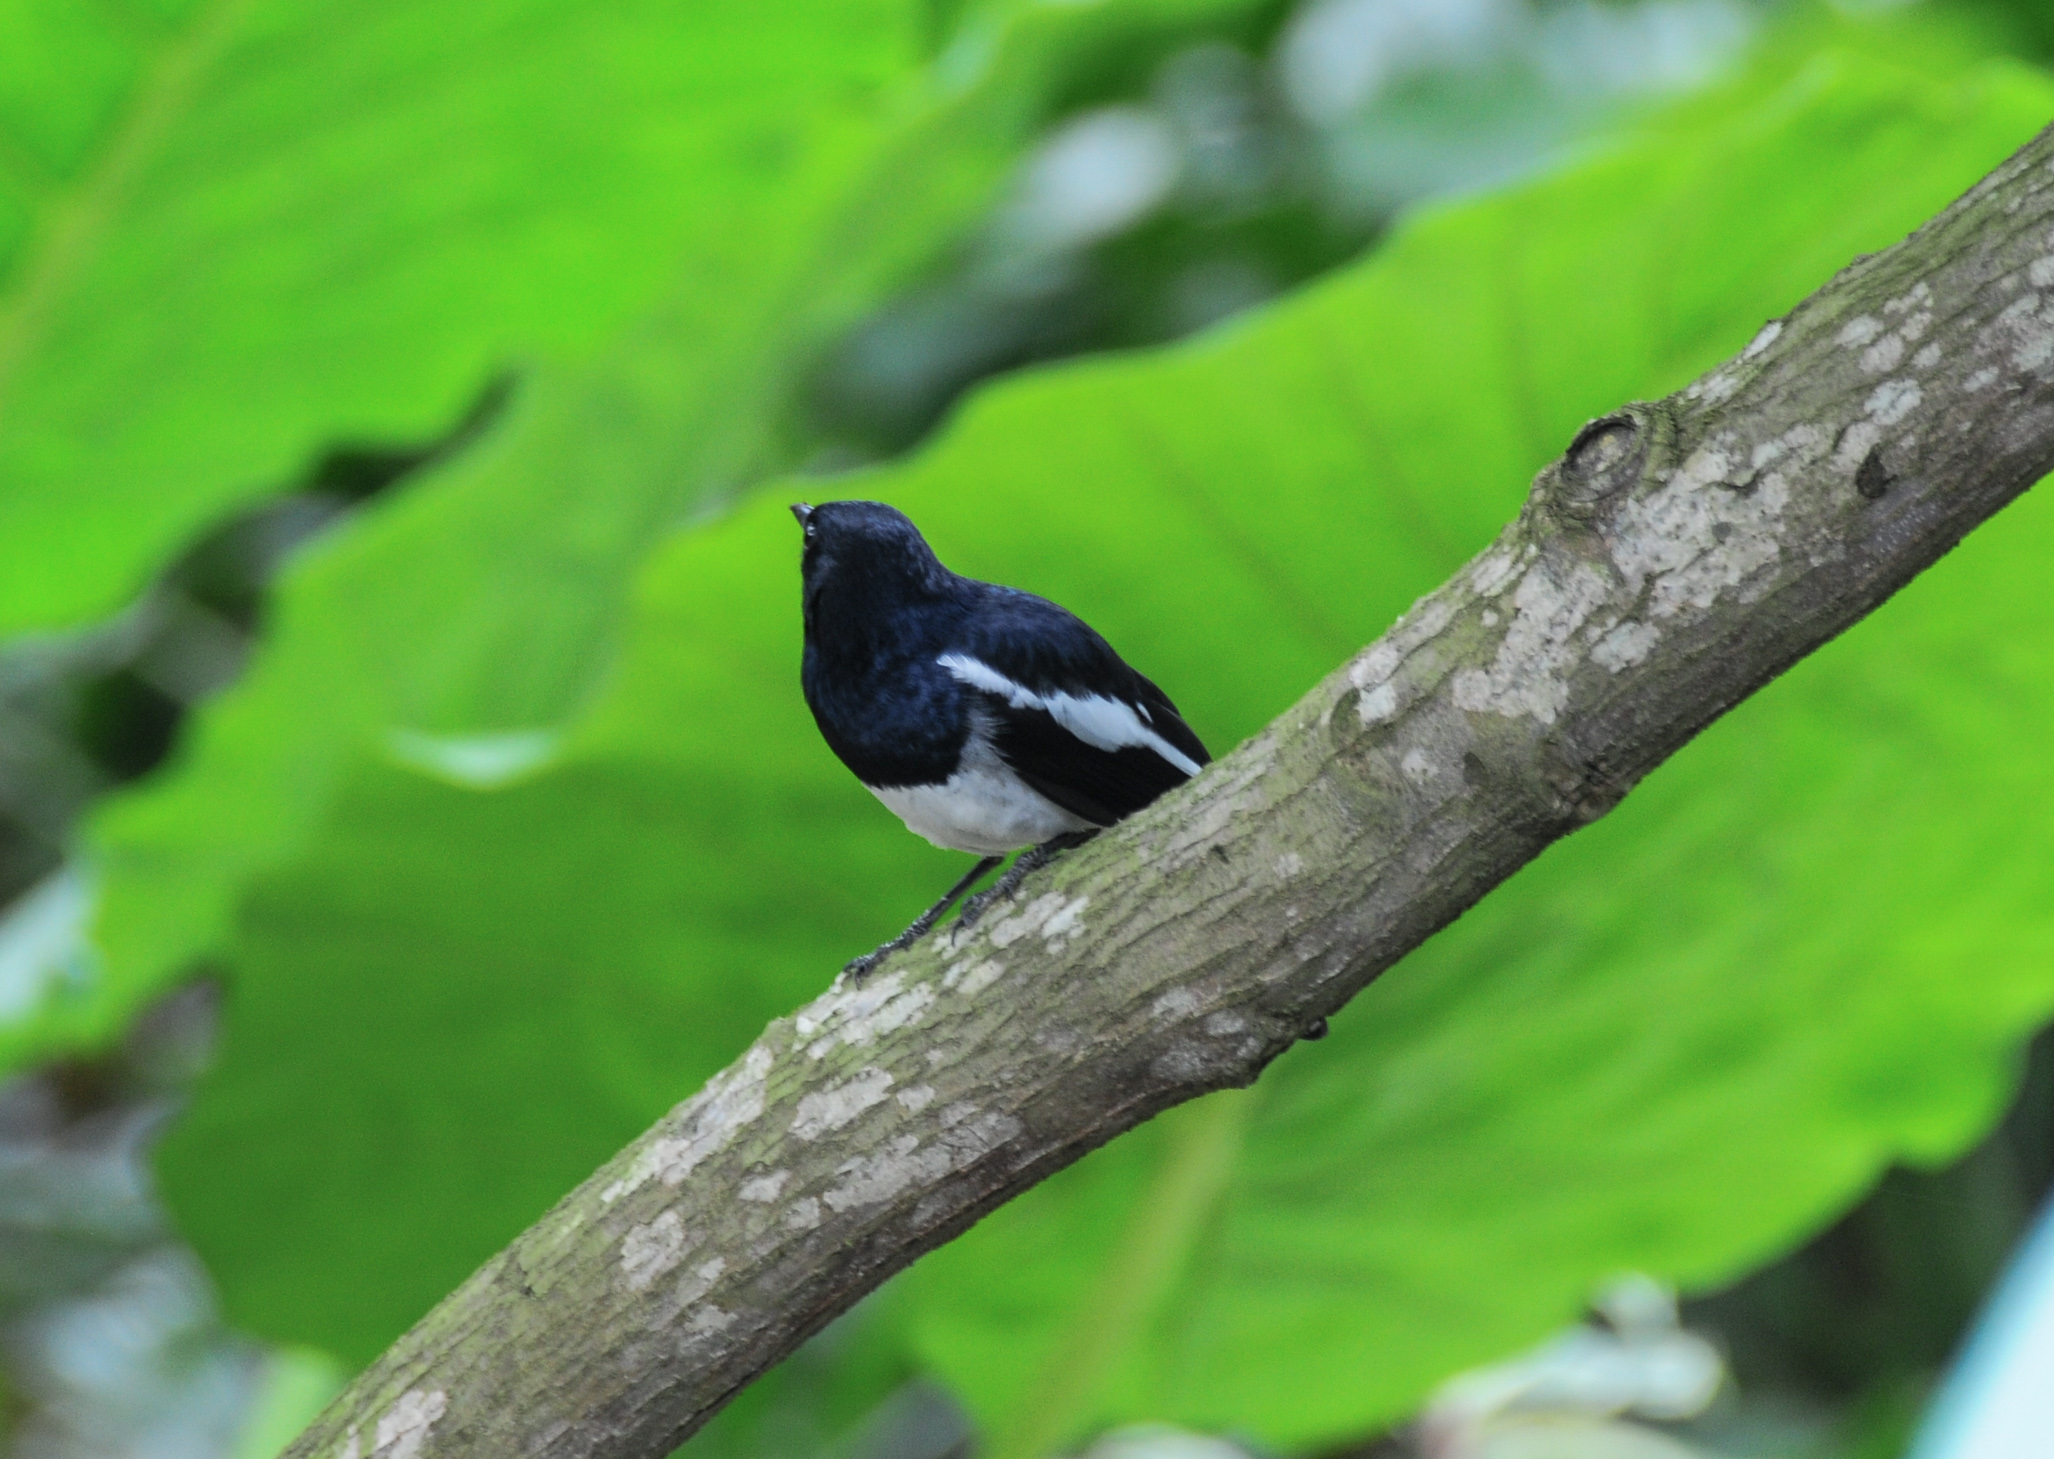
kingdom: Animalia
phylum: Chordata
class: Aves
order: Passeriformes
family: Muscicapidae
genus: Copsychus
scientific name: Copsychus saularis
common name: Oriental magpie-robin
